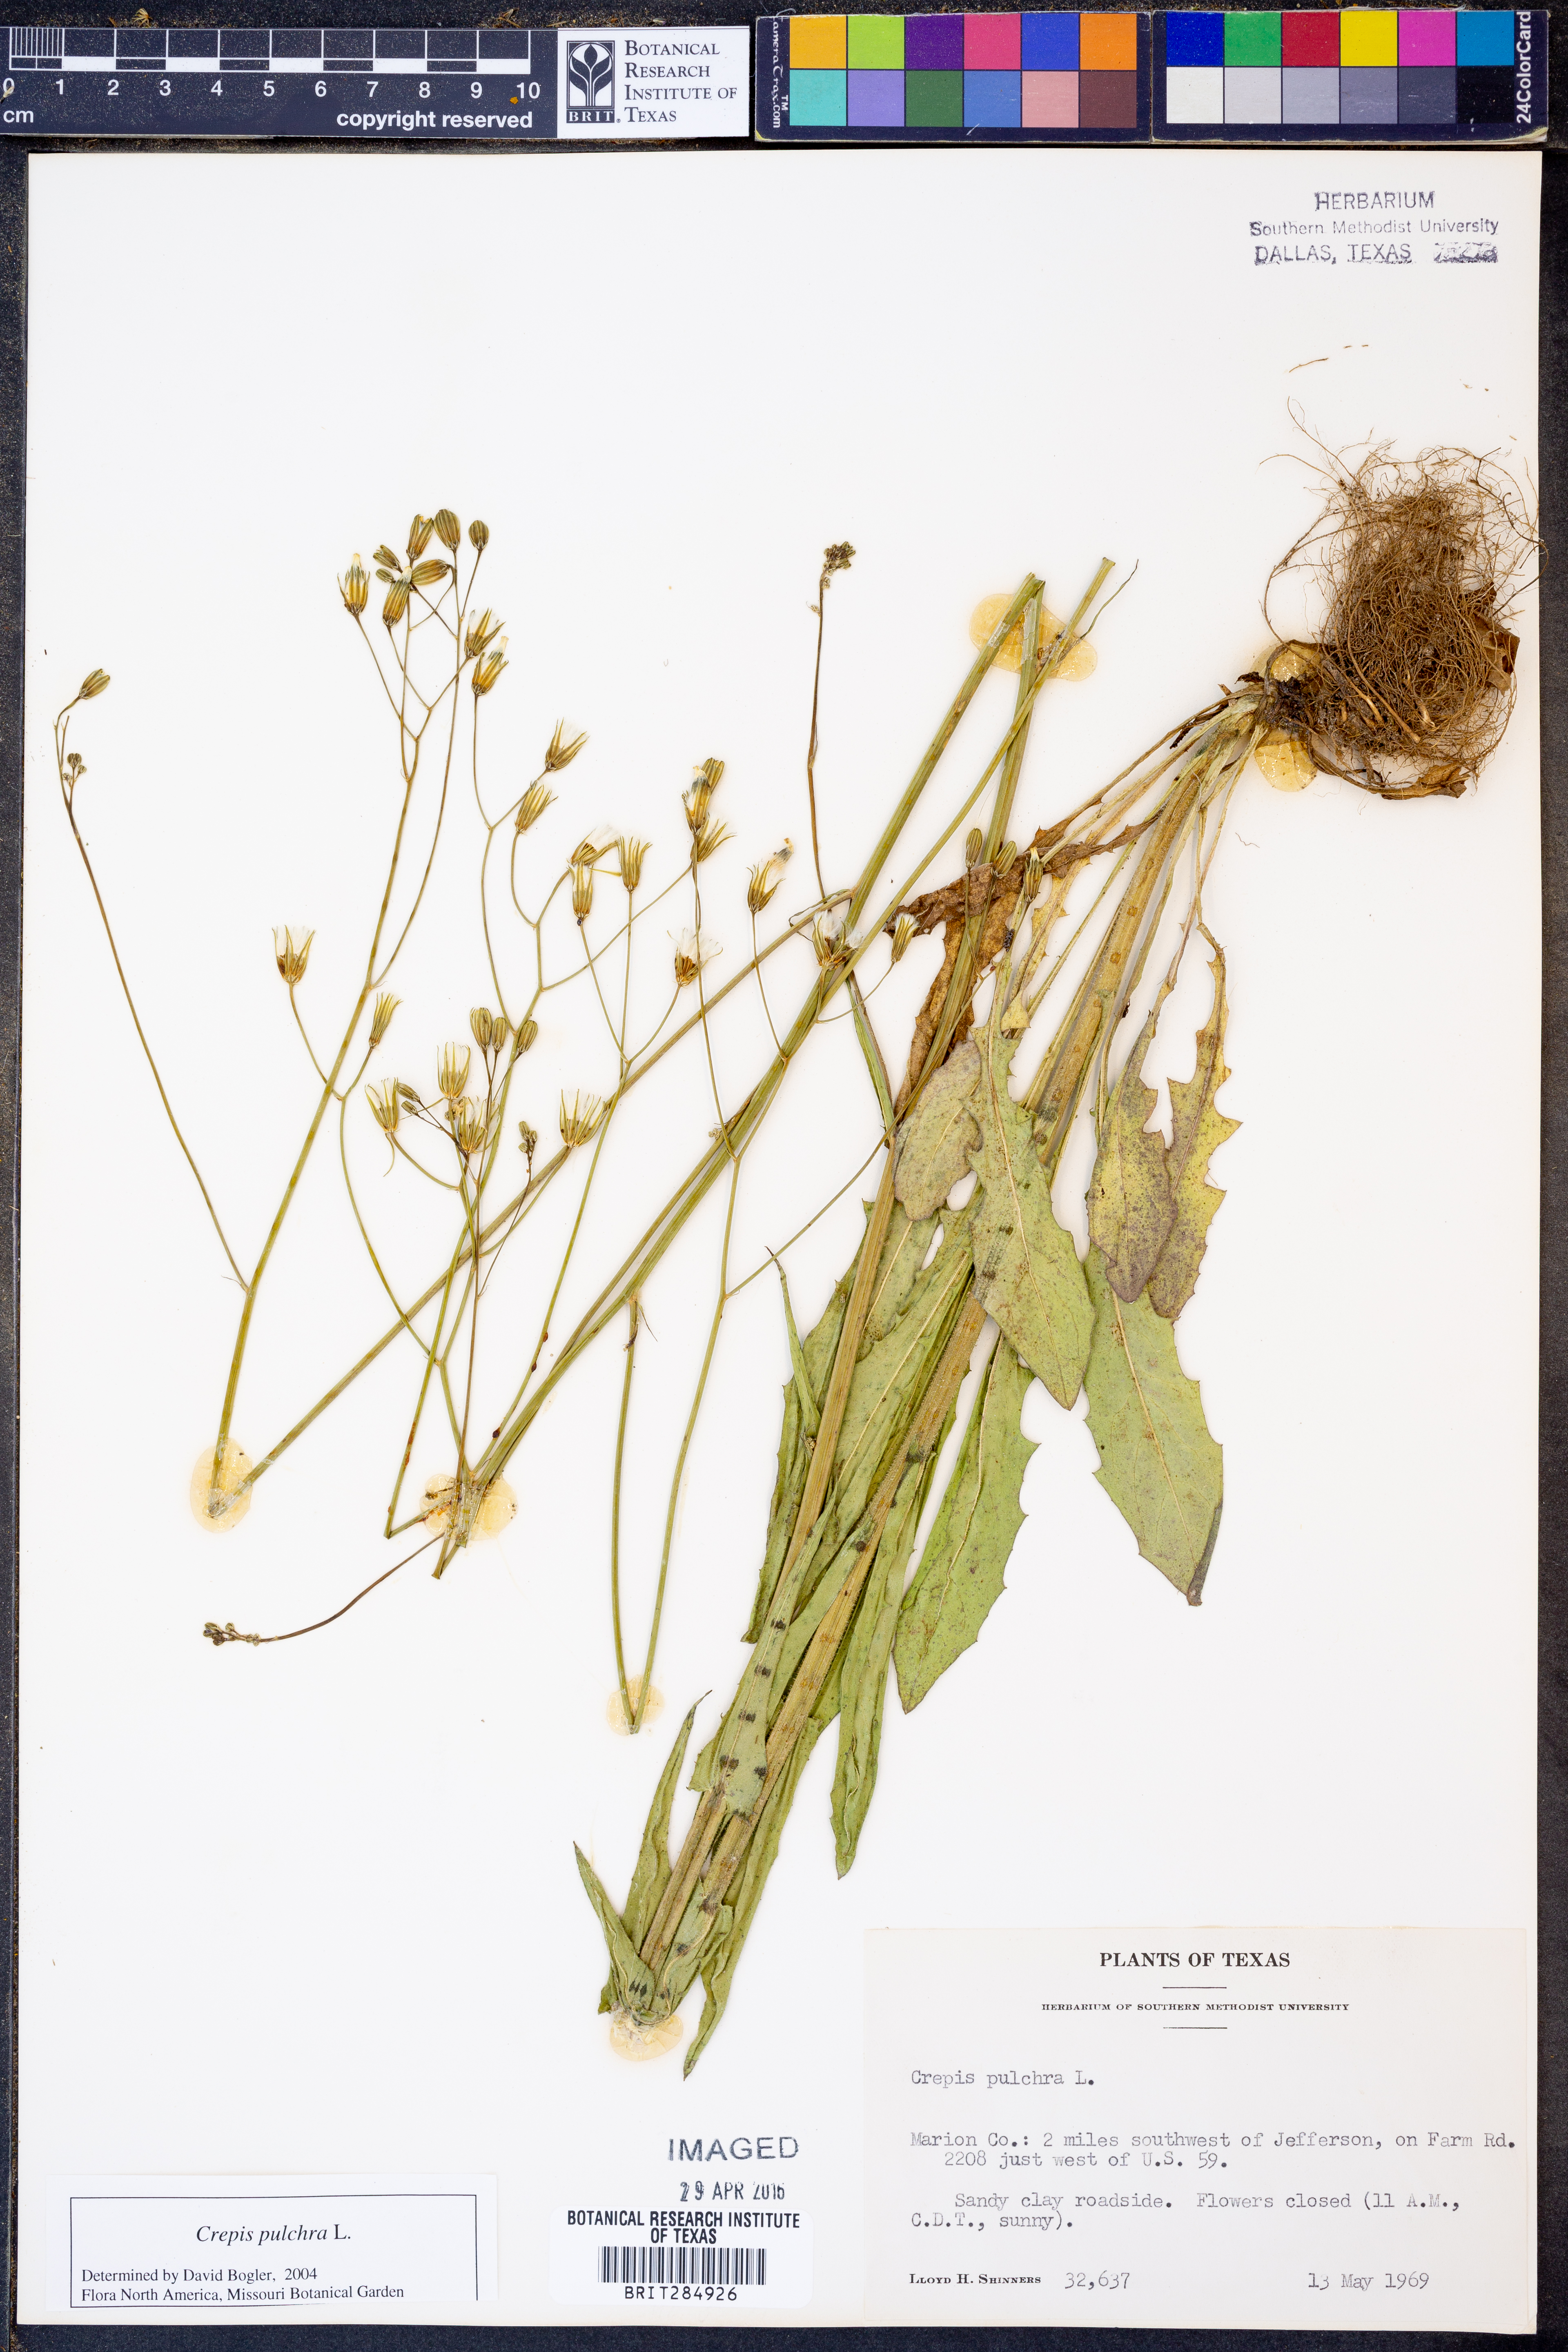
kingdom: Plantae
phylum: Tracheophyta
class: Magnoliopsida
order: Asterales
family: Asteraceae
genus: Crepis
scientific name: Crepis pulchra
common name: Hawk's-beard
